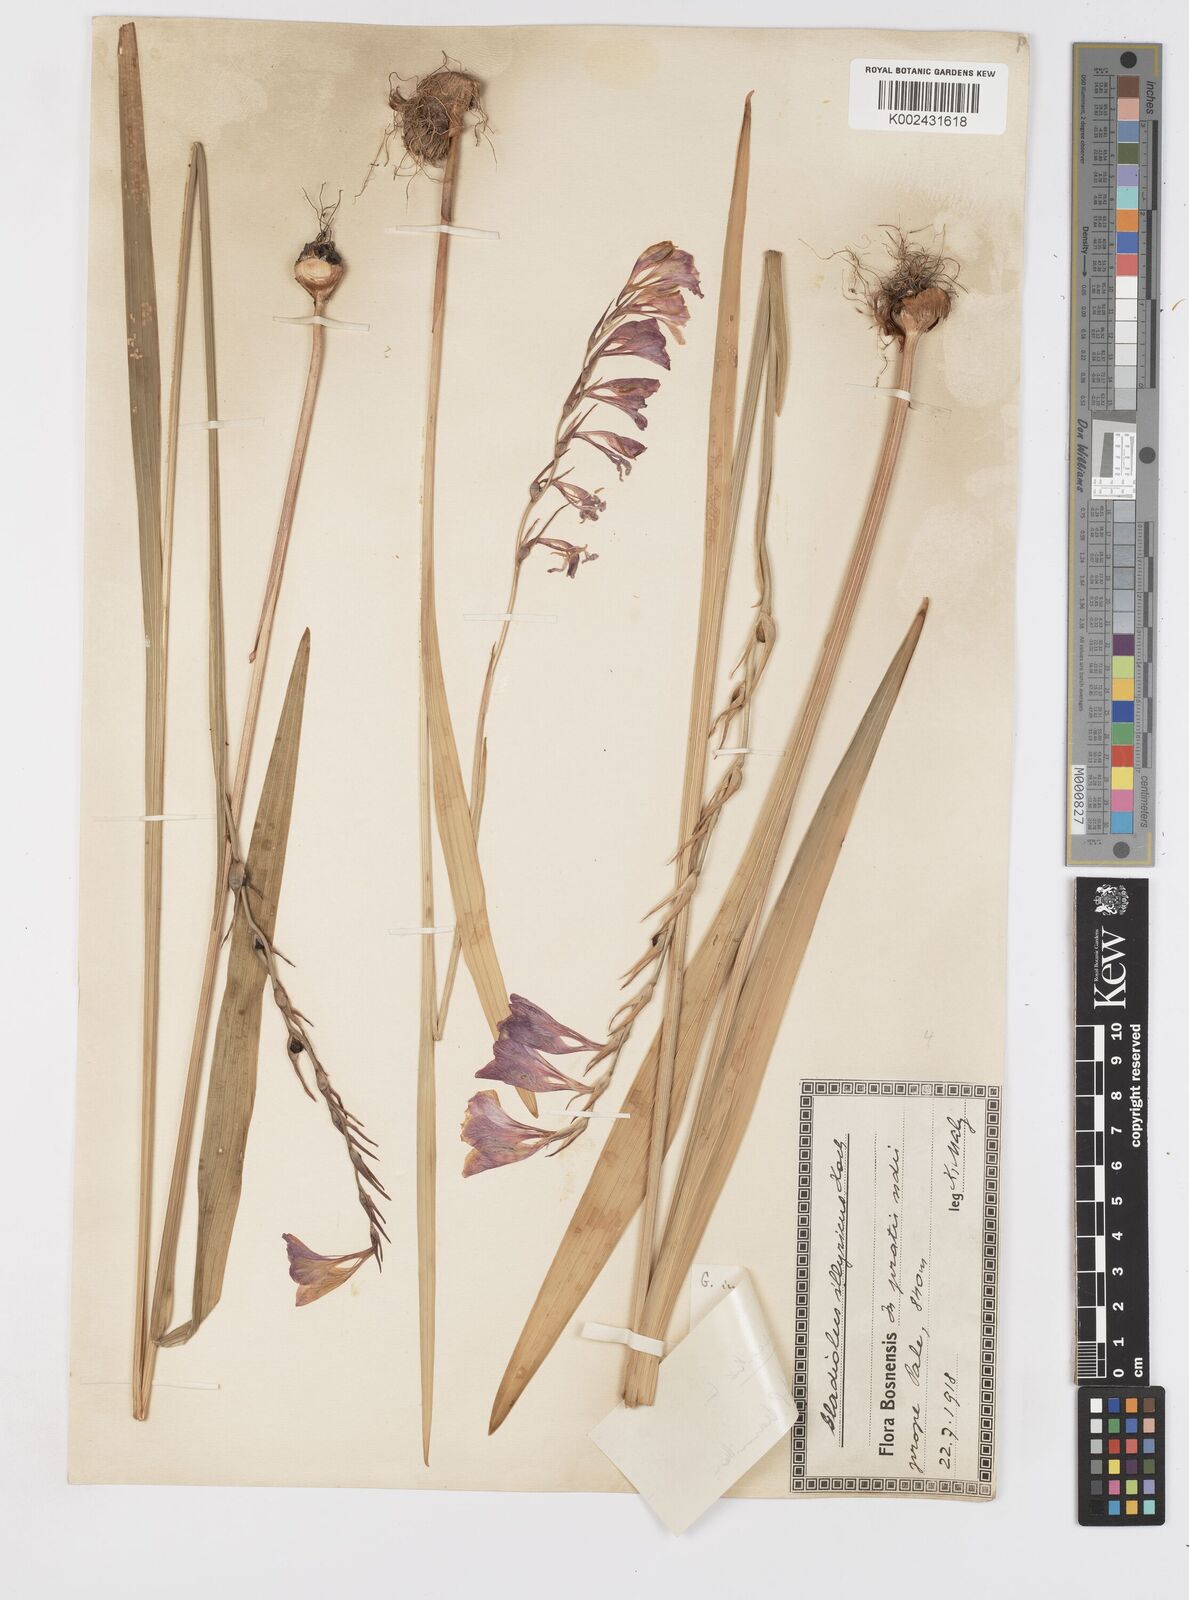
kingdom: Plantae
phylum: Tracheophyta
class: Liliopsida
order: Asparagales
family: Iridaceae
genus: Gladiolus
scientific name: Gladiolus communis
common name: Eastern gladiolus
